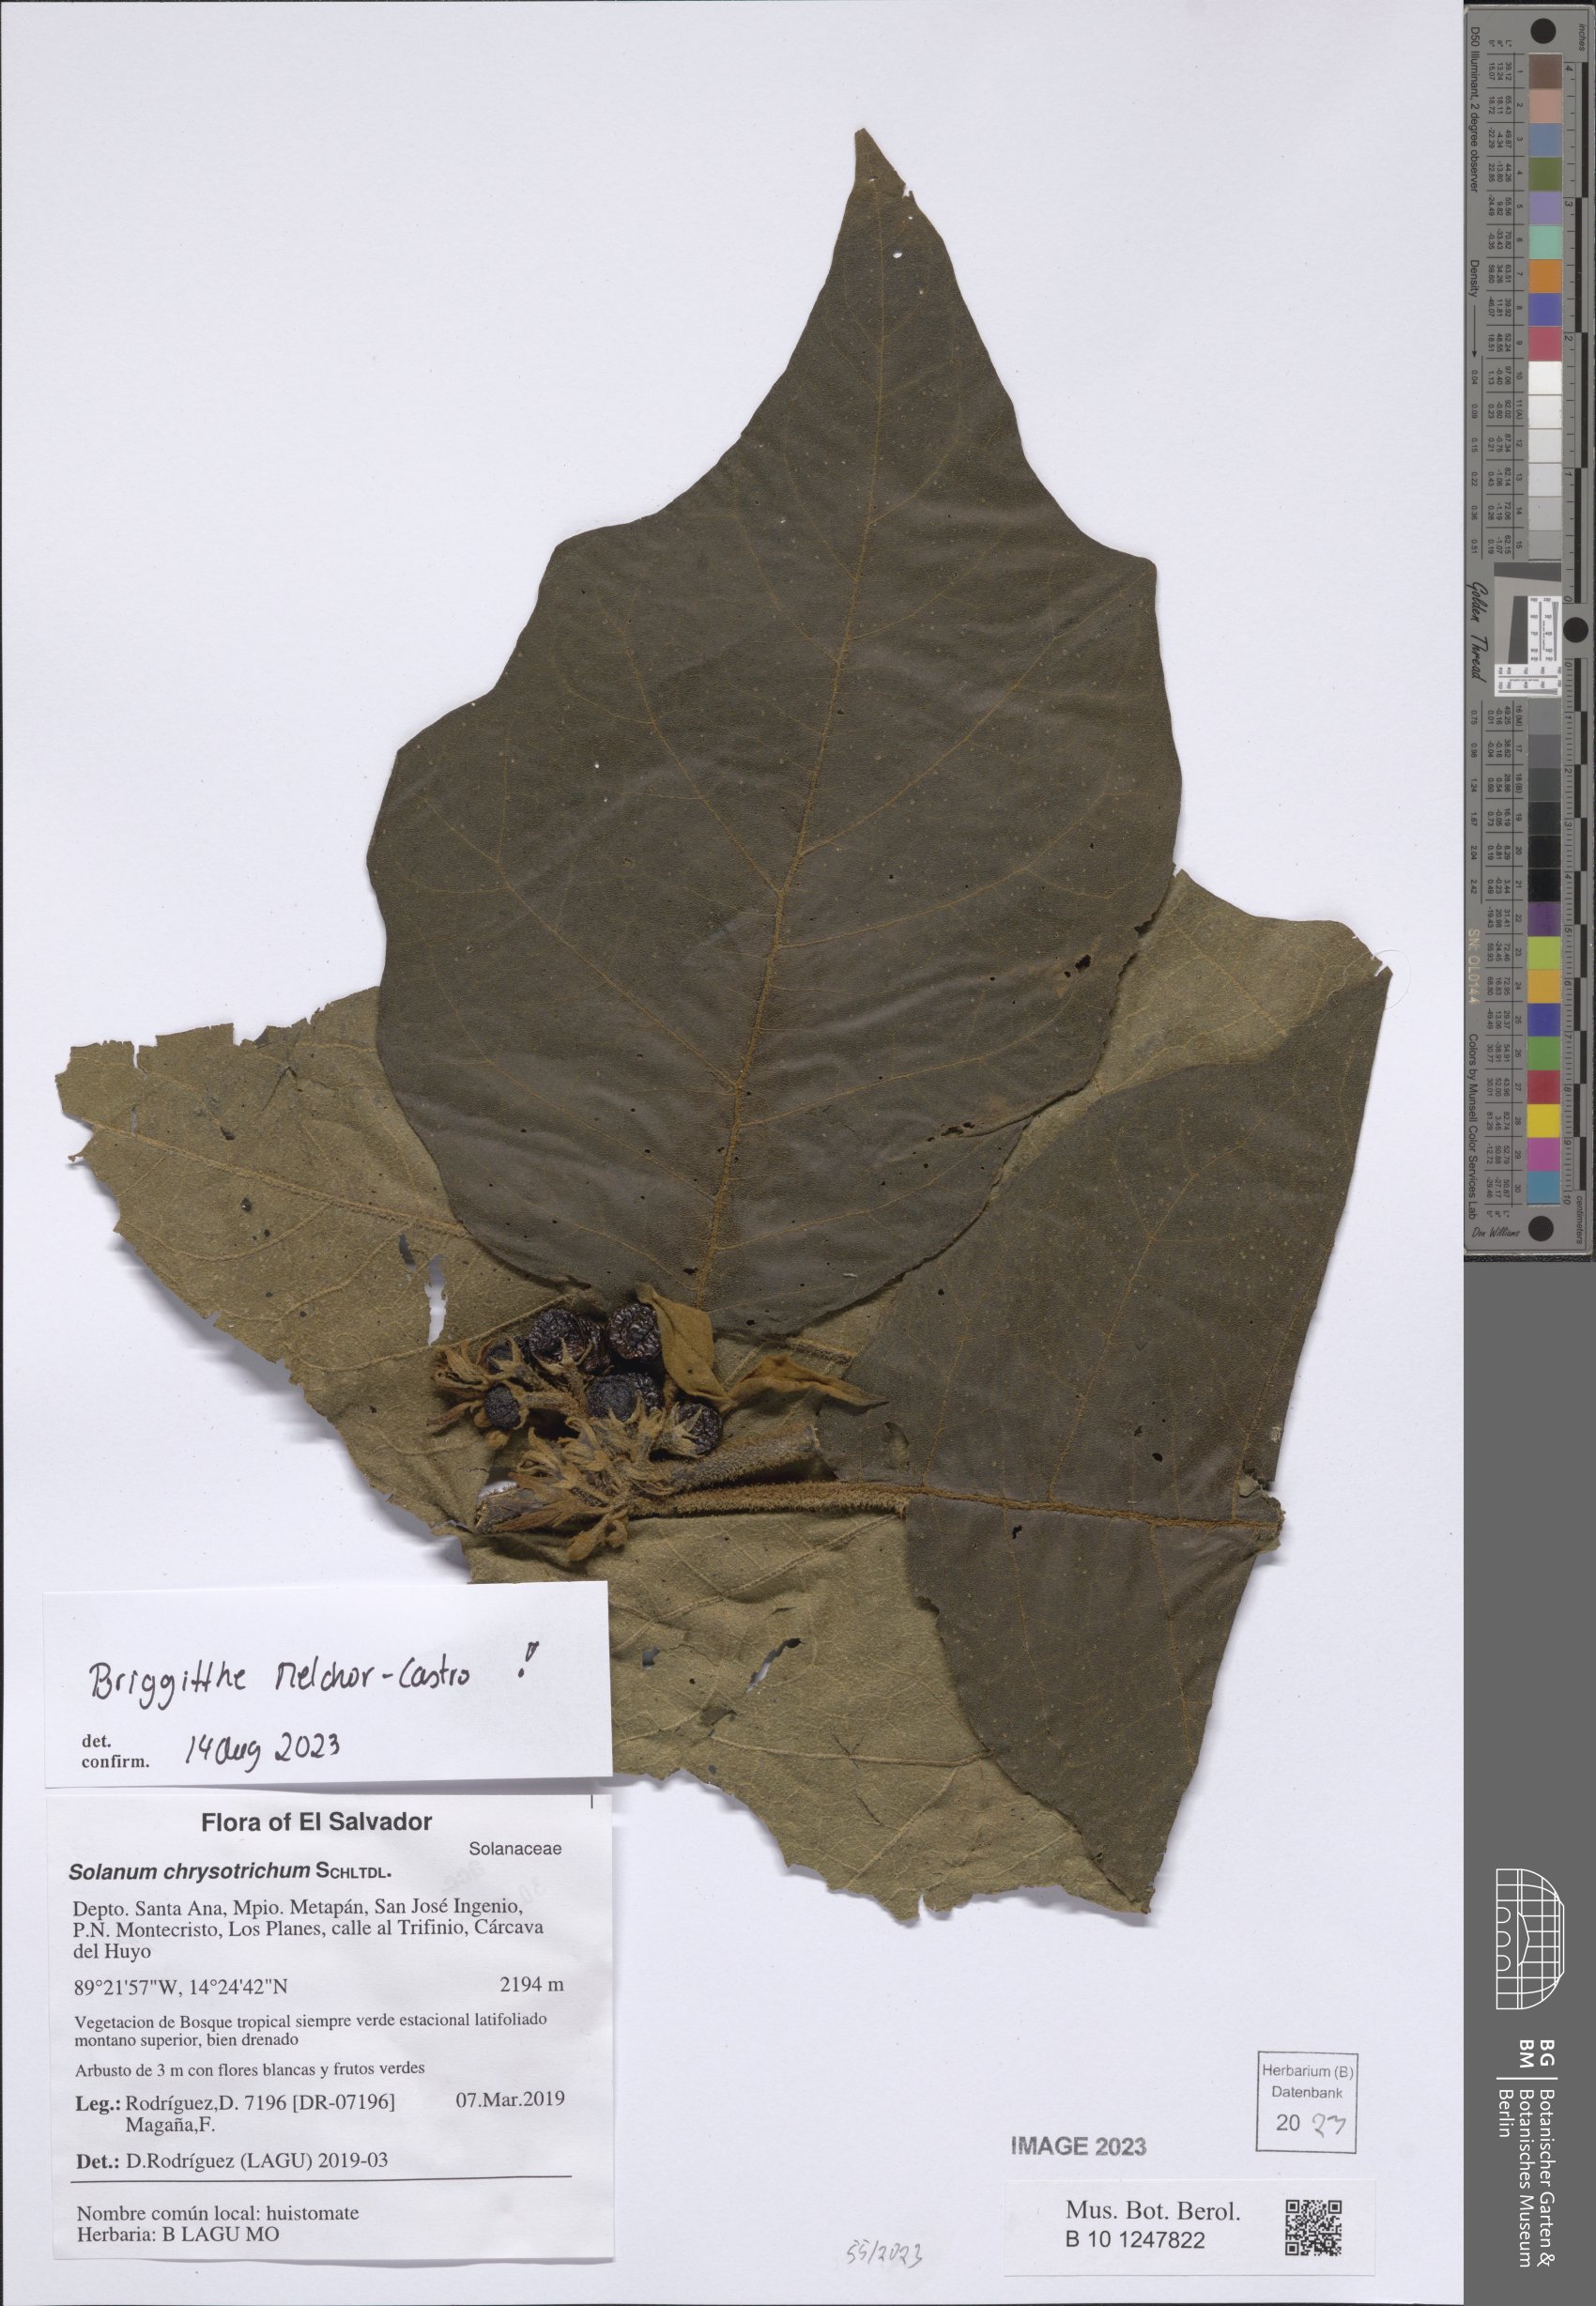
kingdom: Plantae
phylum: Tracheophyta
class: Magnoliopsida
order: Solanales
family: Solanaceae
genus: Solanum
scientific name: Solanum chrysotrichum
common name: Nightshade
